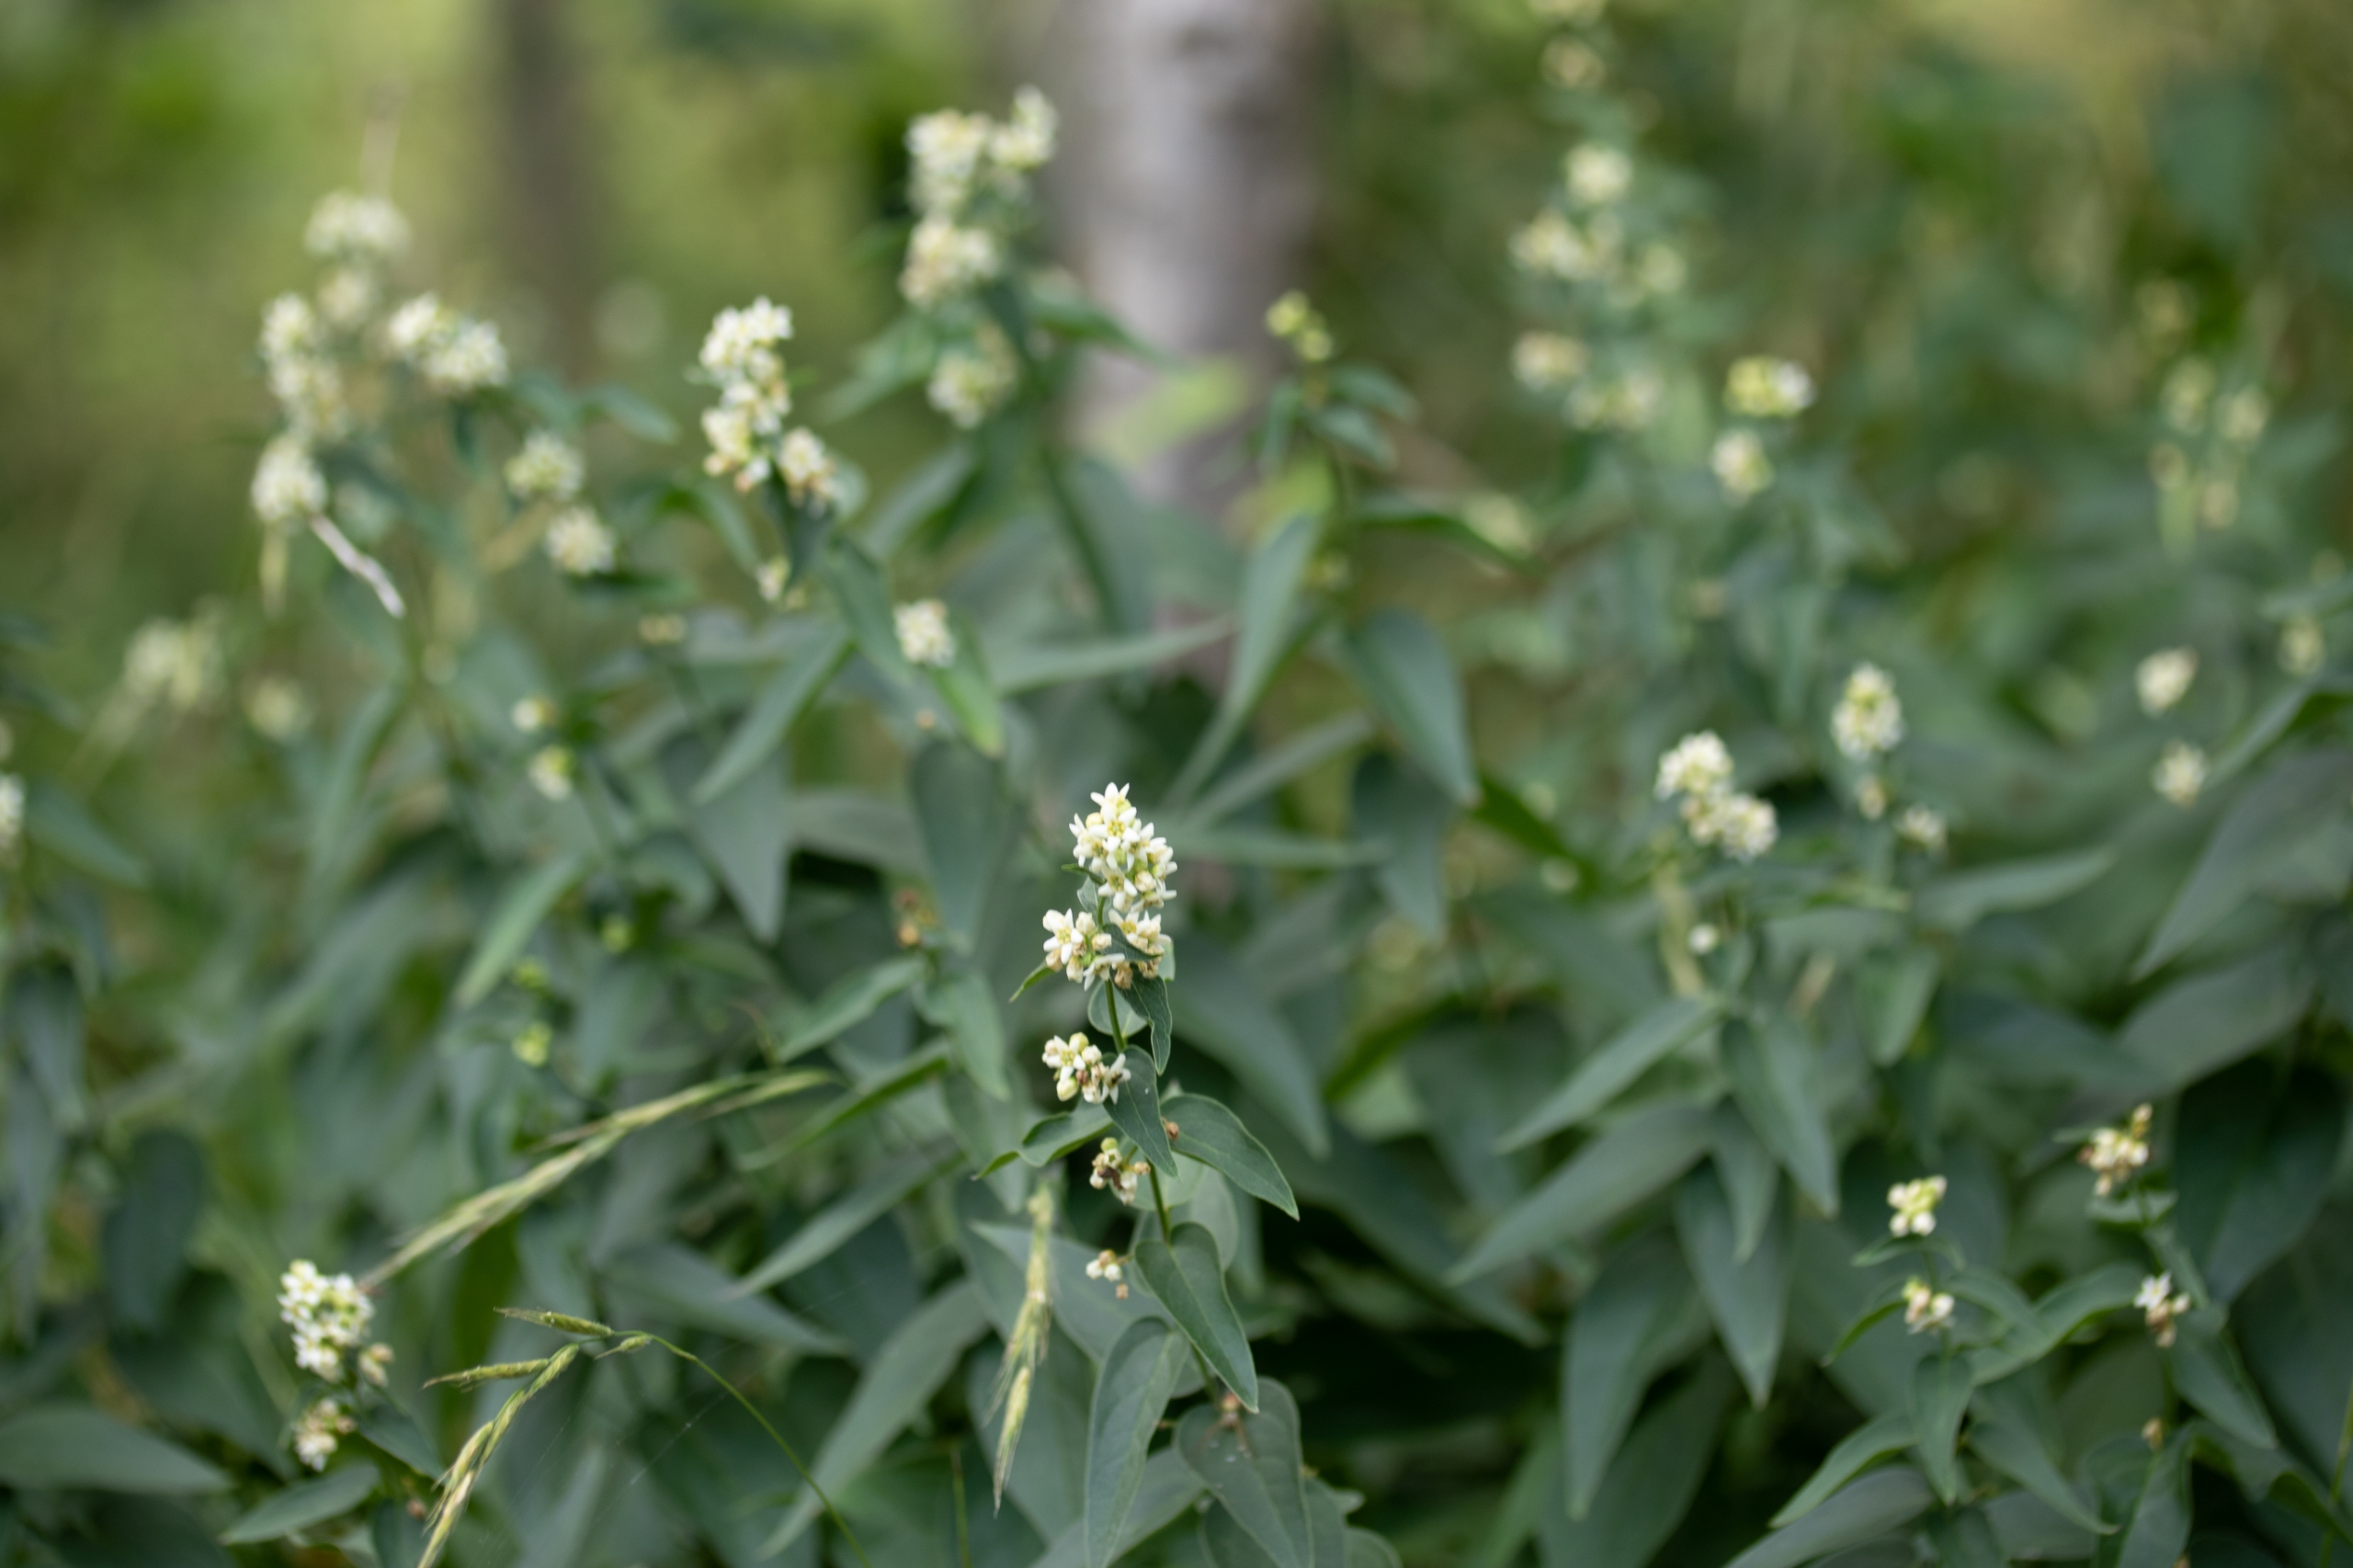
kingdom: Plantae
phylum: Tracheophyta
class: Magnoliopsida
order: Gentianales
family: Apocynaceae
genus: Vincetoxicum
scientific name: Vincetoxicum hirundinaria
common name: Svalerod
